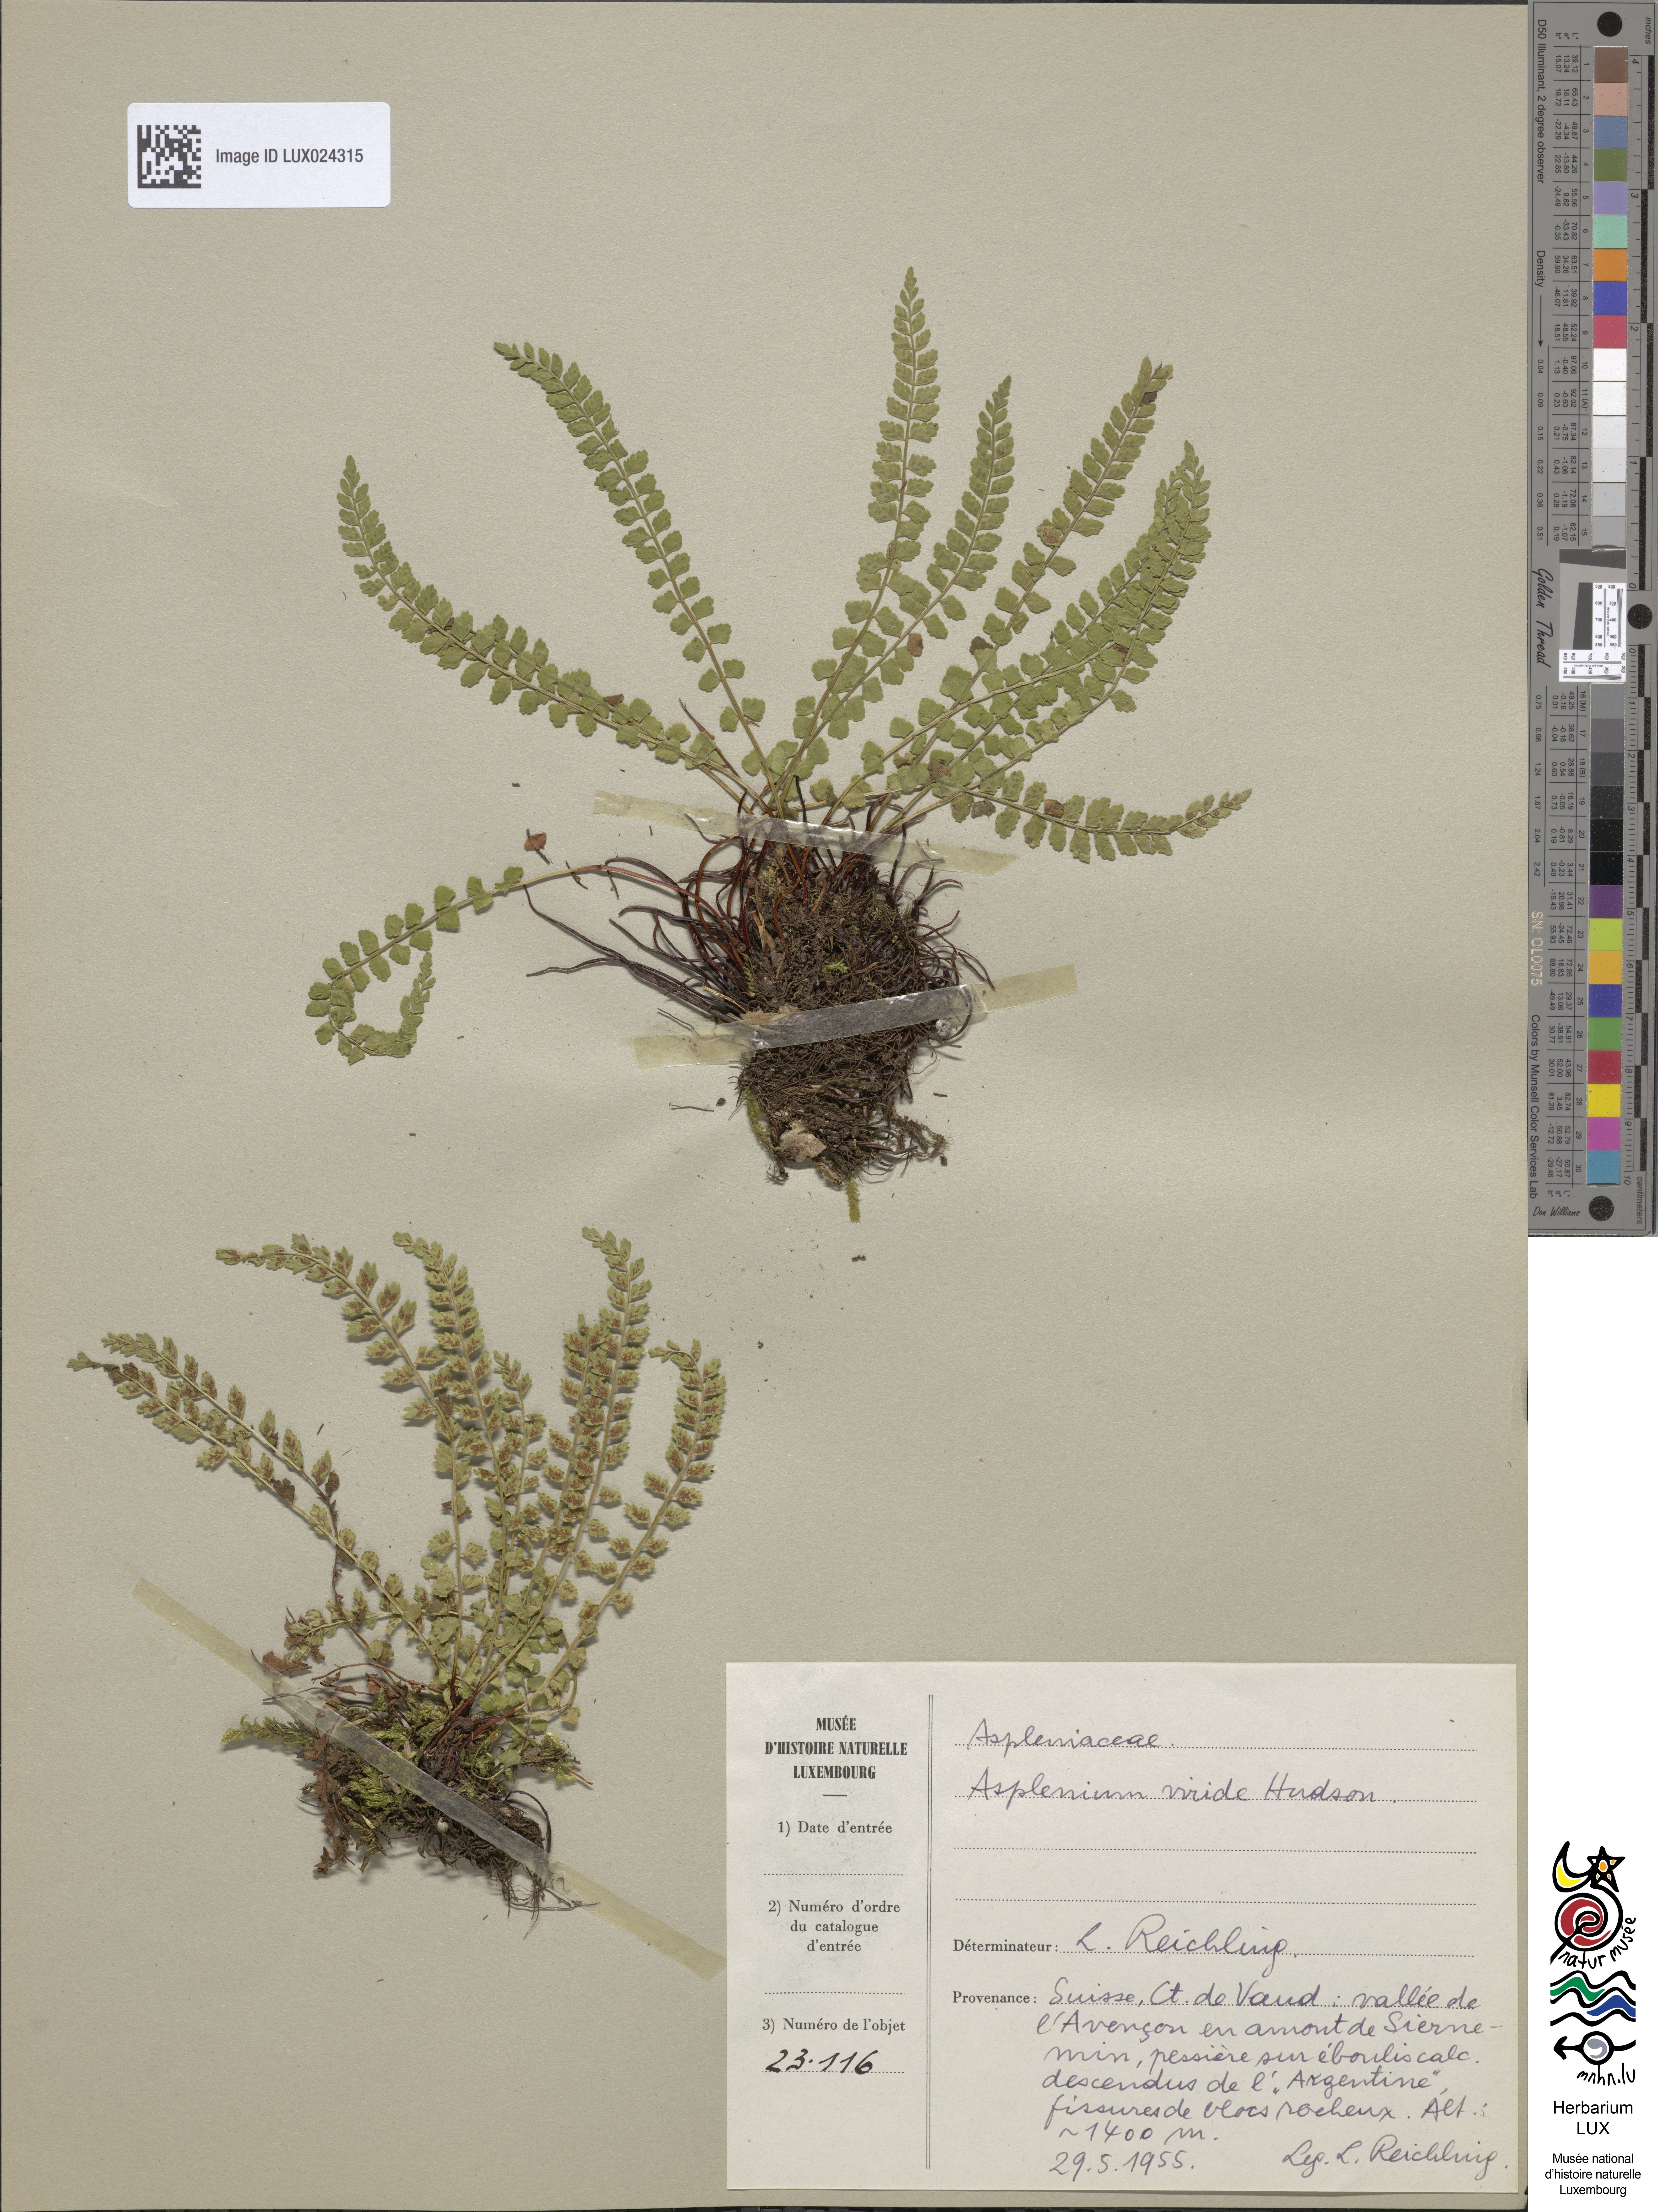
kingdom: Plantae
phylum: Tracheophyta
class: Polypodiopsida
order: Polypodiales
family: Aspleniaceae
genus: Asplenium
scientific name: Asplenium viride
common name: Green spleenwort
